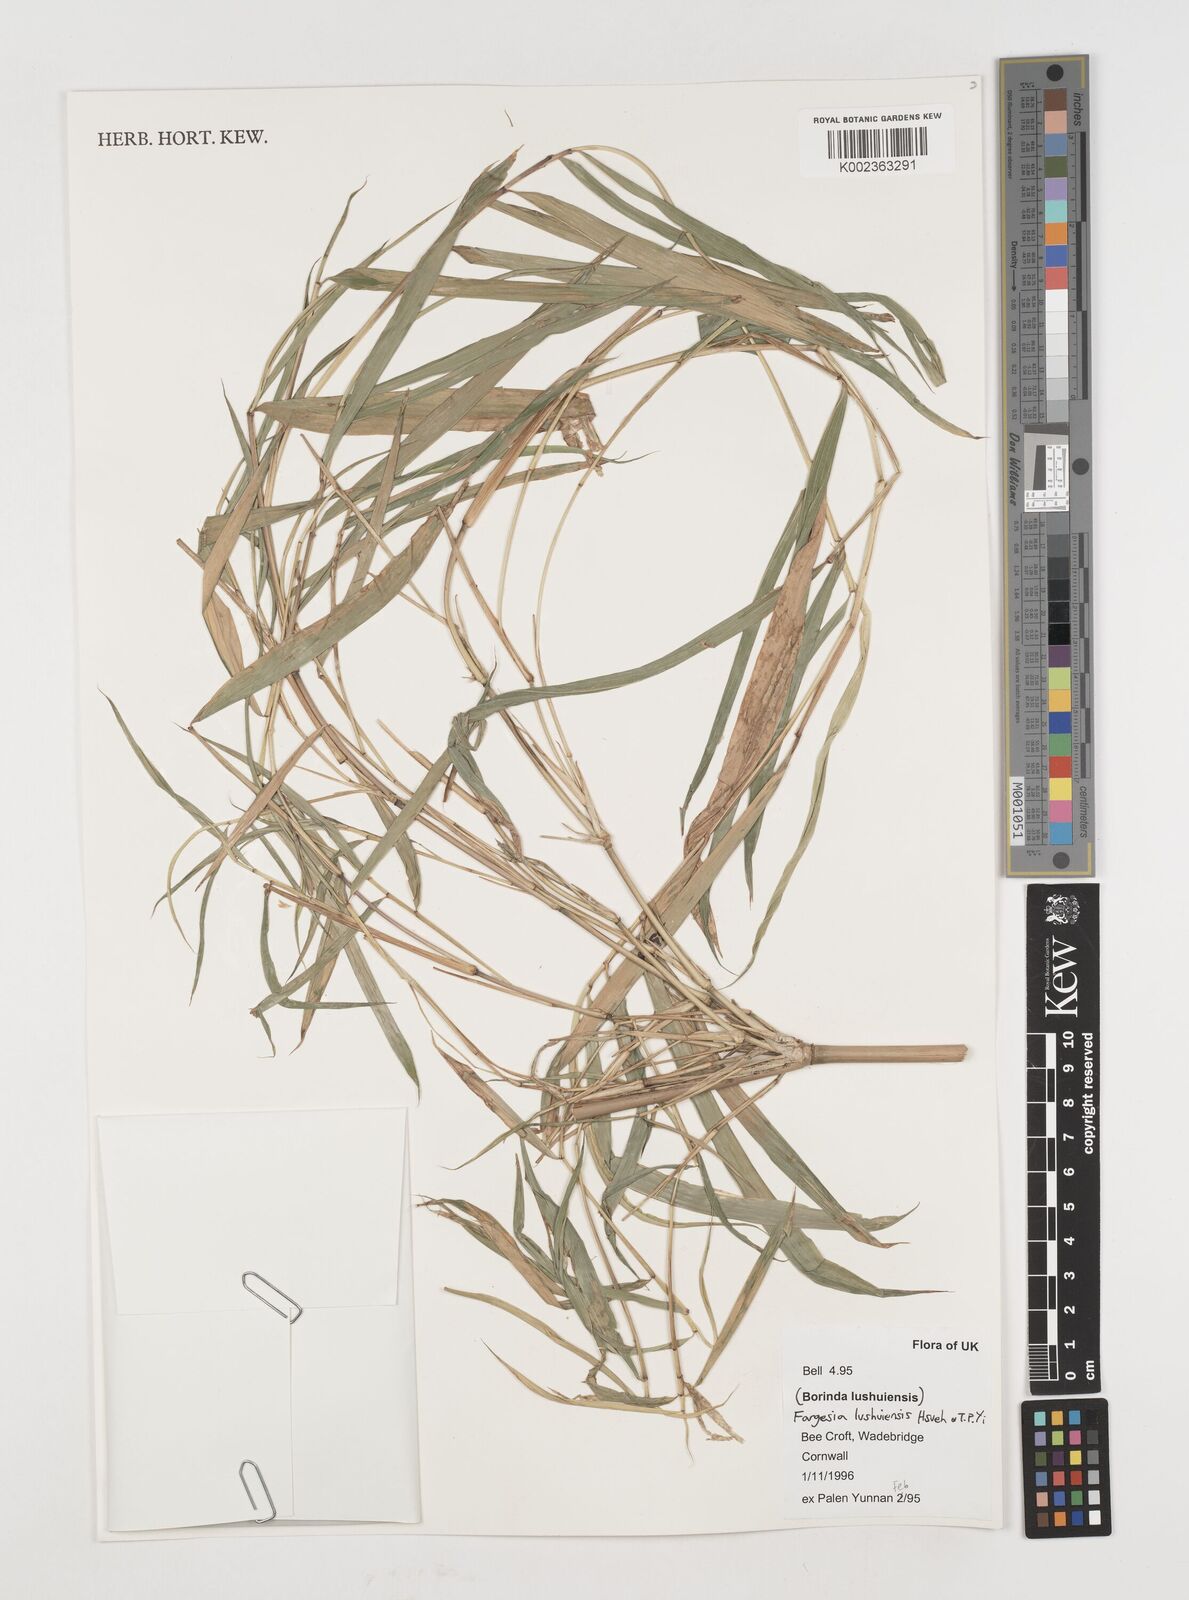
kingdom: Plantae
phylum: Tracheophyta
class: Liliopsida
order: Poales
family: Poaceae
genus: Borinda
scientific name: Borinda lushuiensis
